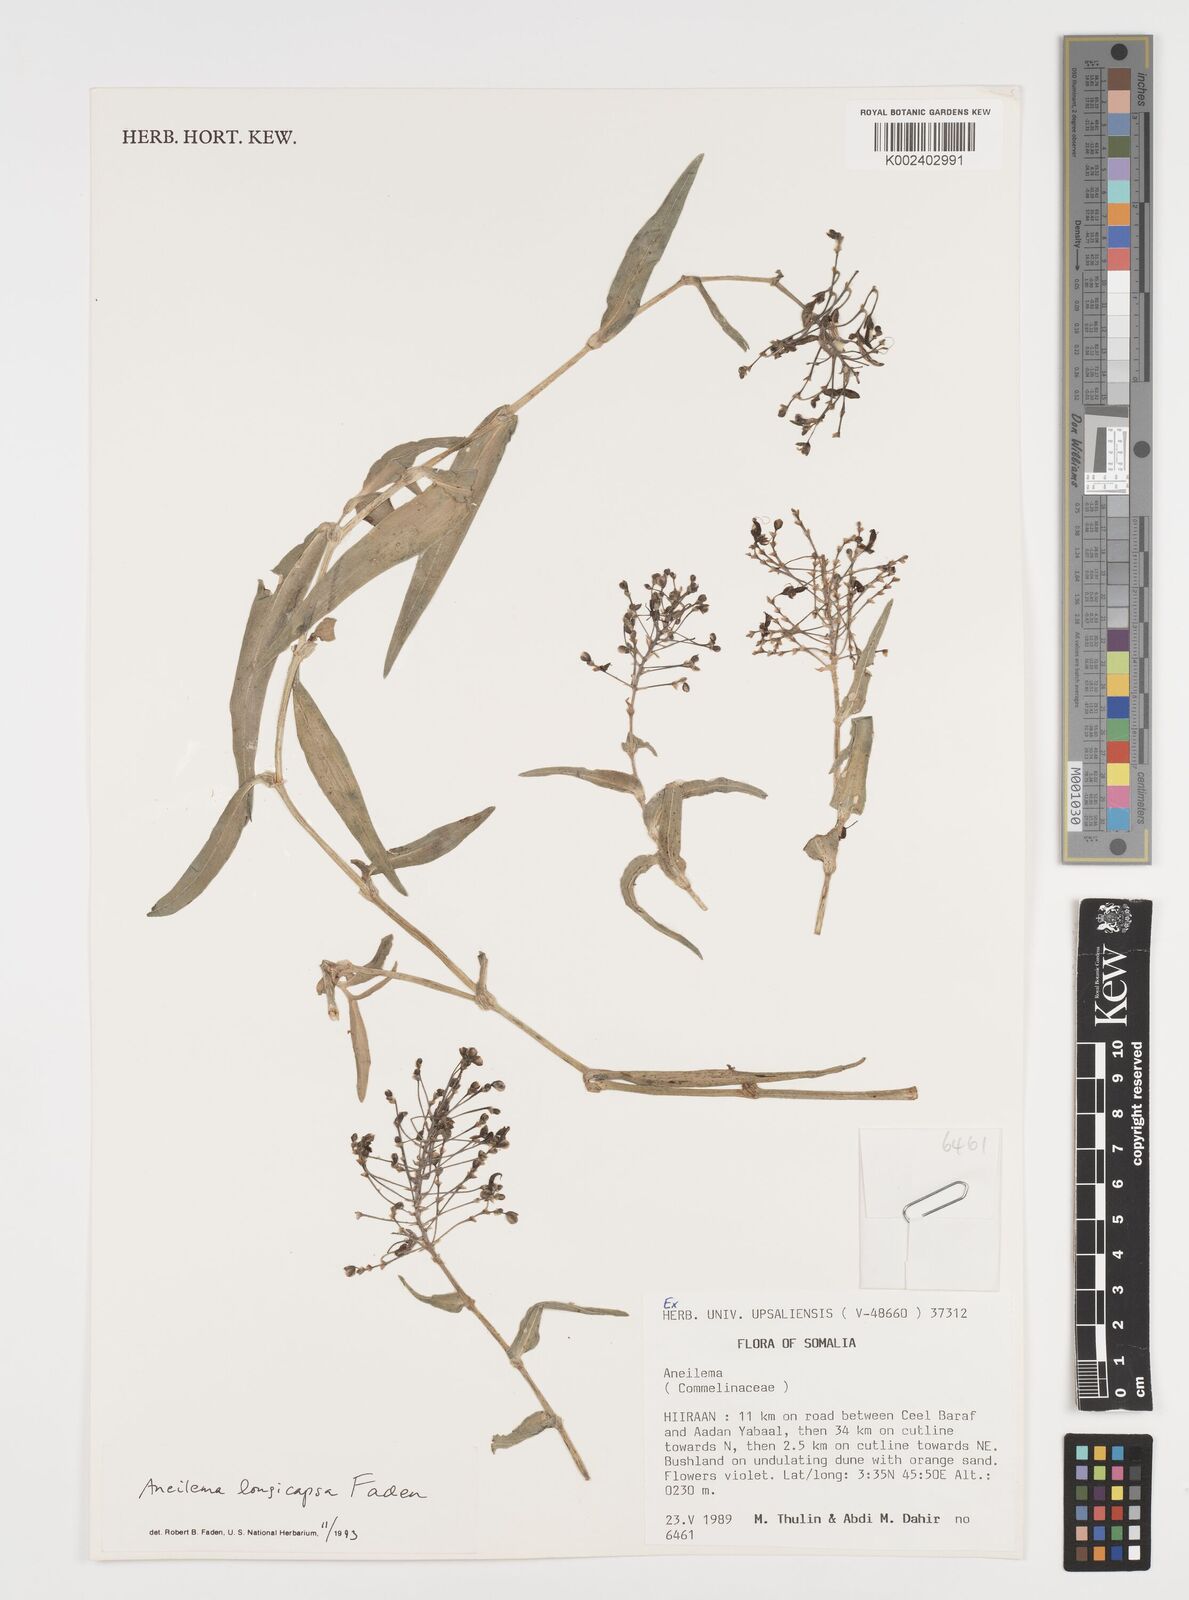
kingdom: Plantae
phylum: Tracheophyta
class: Liliopsida
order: Commelinales
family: Commelinaceae
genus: Aneilema
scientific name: Aneilema longicapsa
